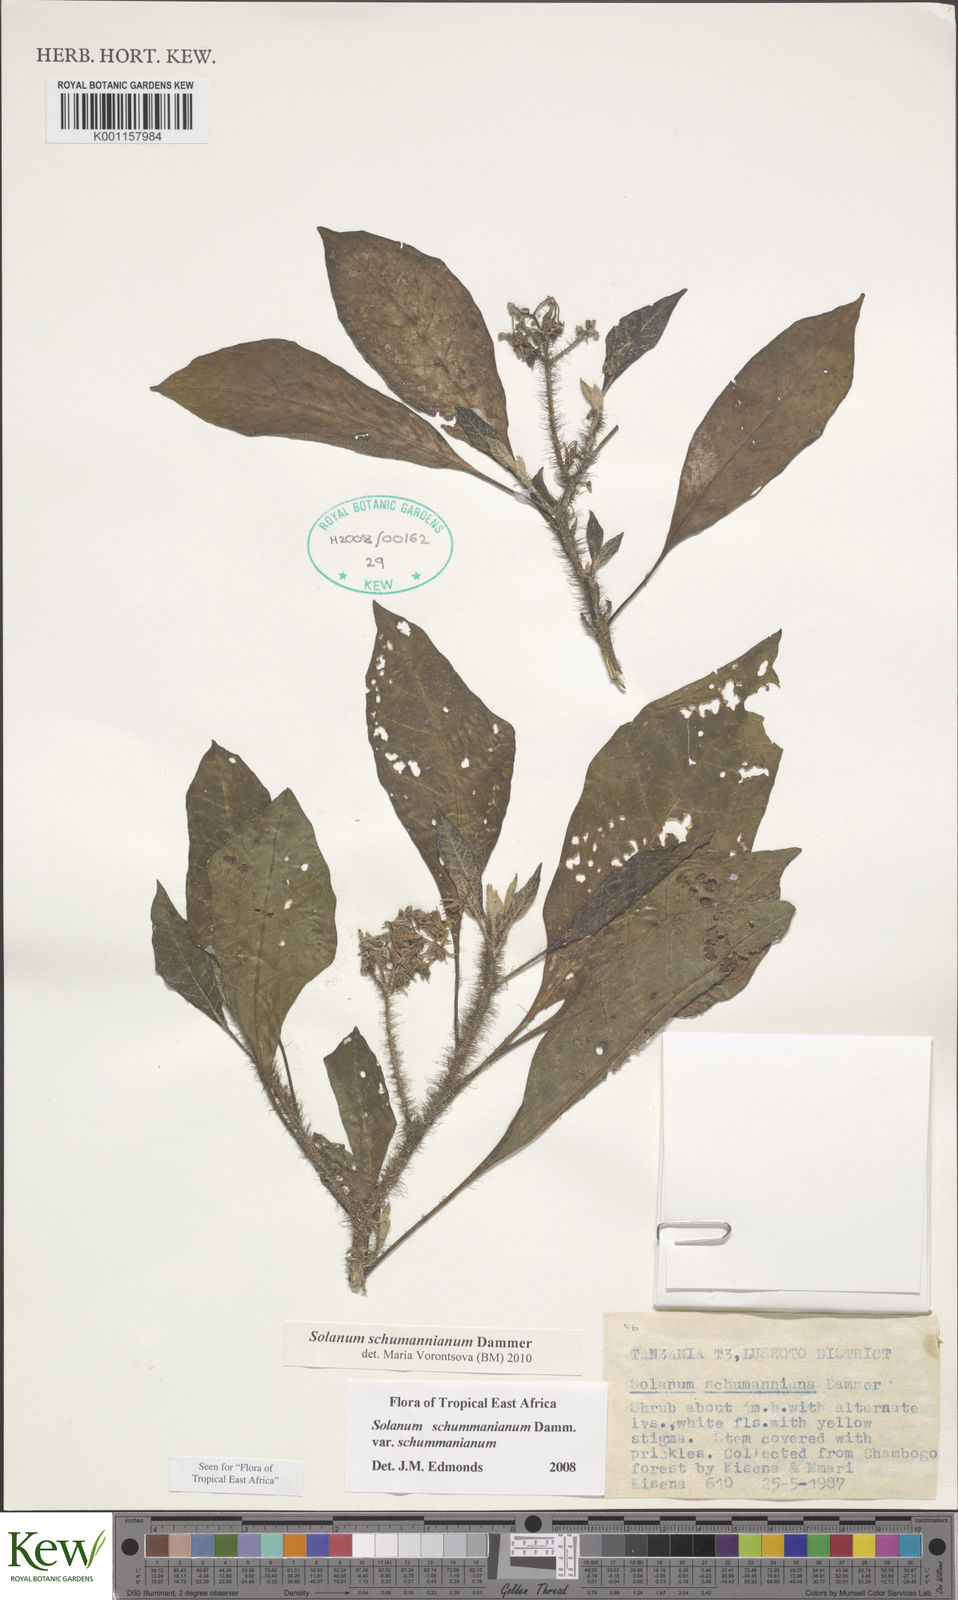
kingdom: Plantae
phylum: Tracheophyta
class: Magnoliopsida
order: Solanales
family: Solanaceae
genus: Solanum
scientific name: Solanum schumannianum
